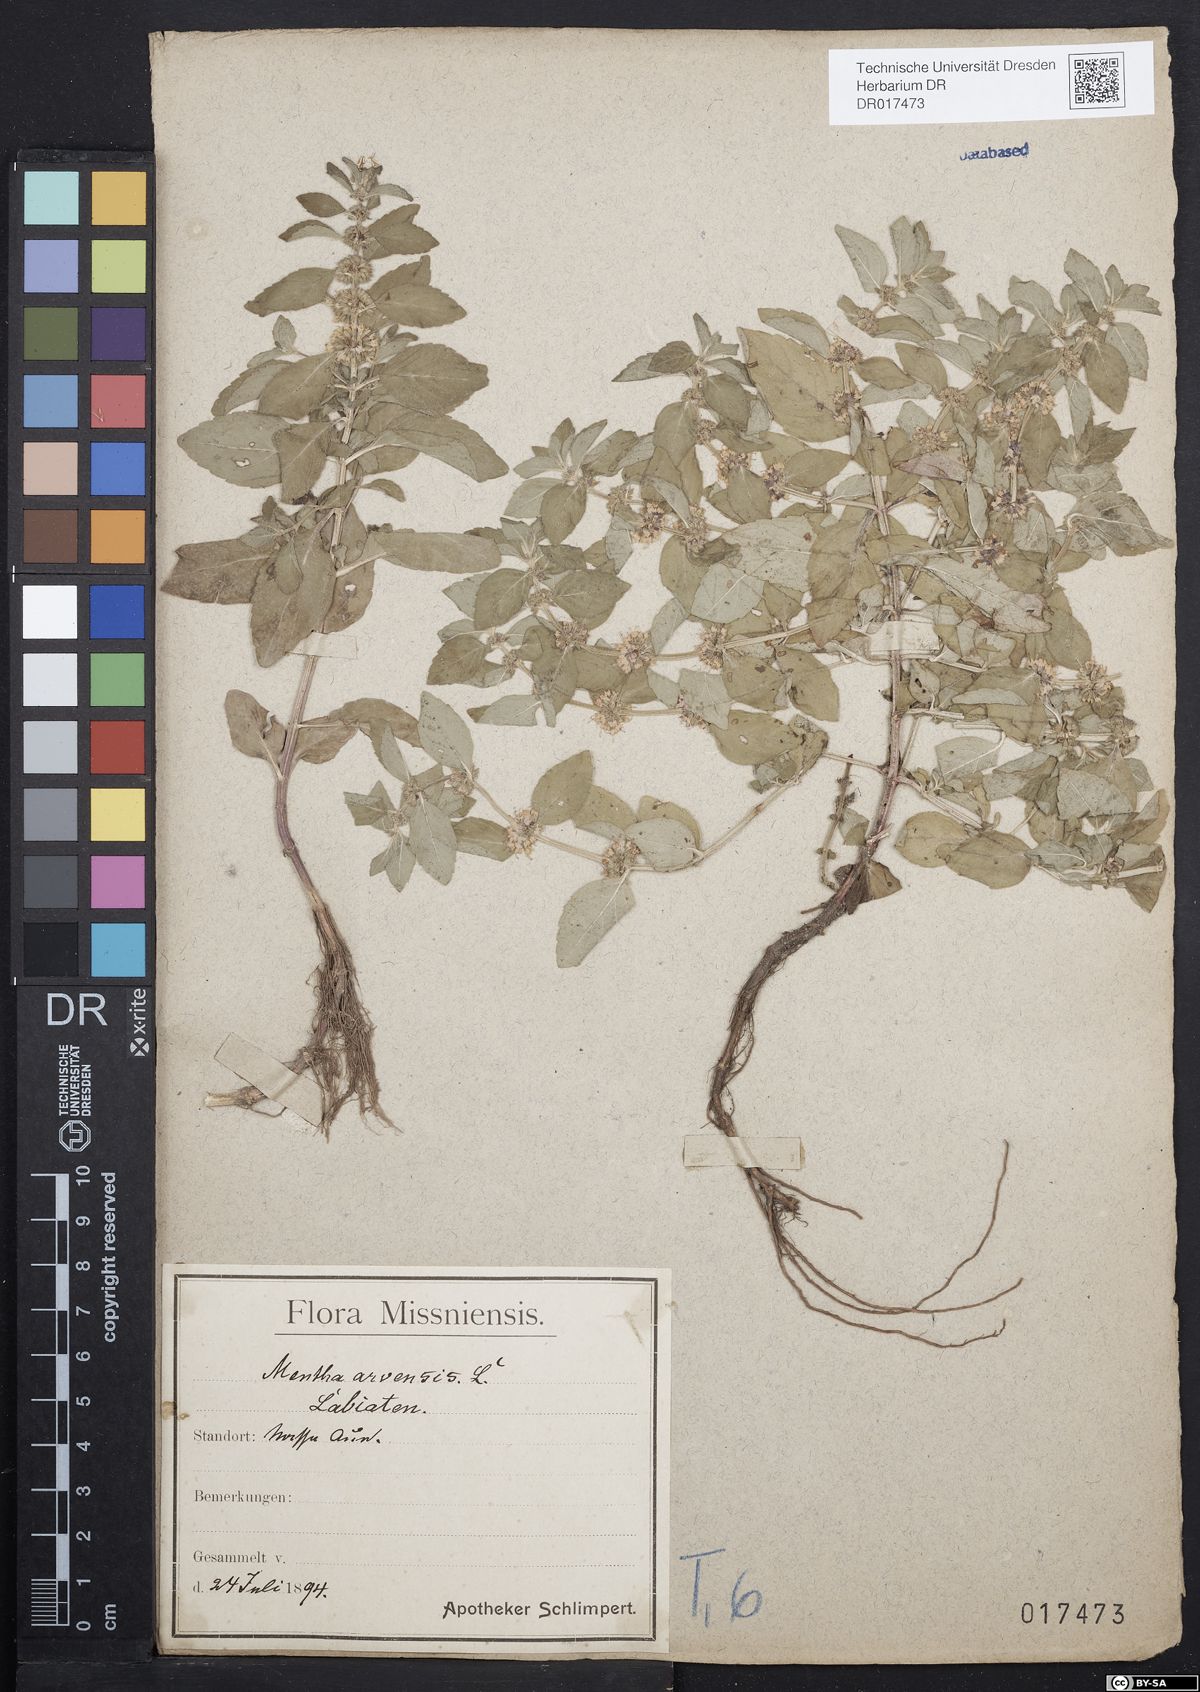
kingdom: Plantae
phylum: Tracheophyta
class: Magnoliopsida
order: Lamiales
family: Lamiaceae
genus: Mentha
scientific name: Mentha arvensis
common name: Corn mint
